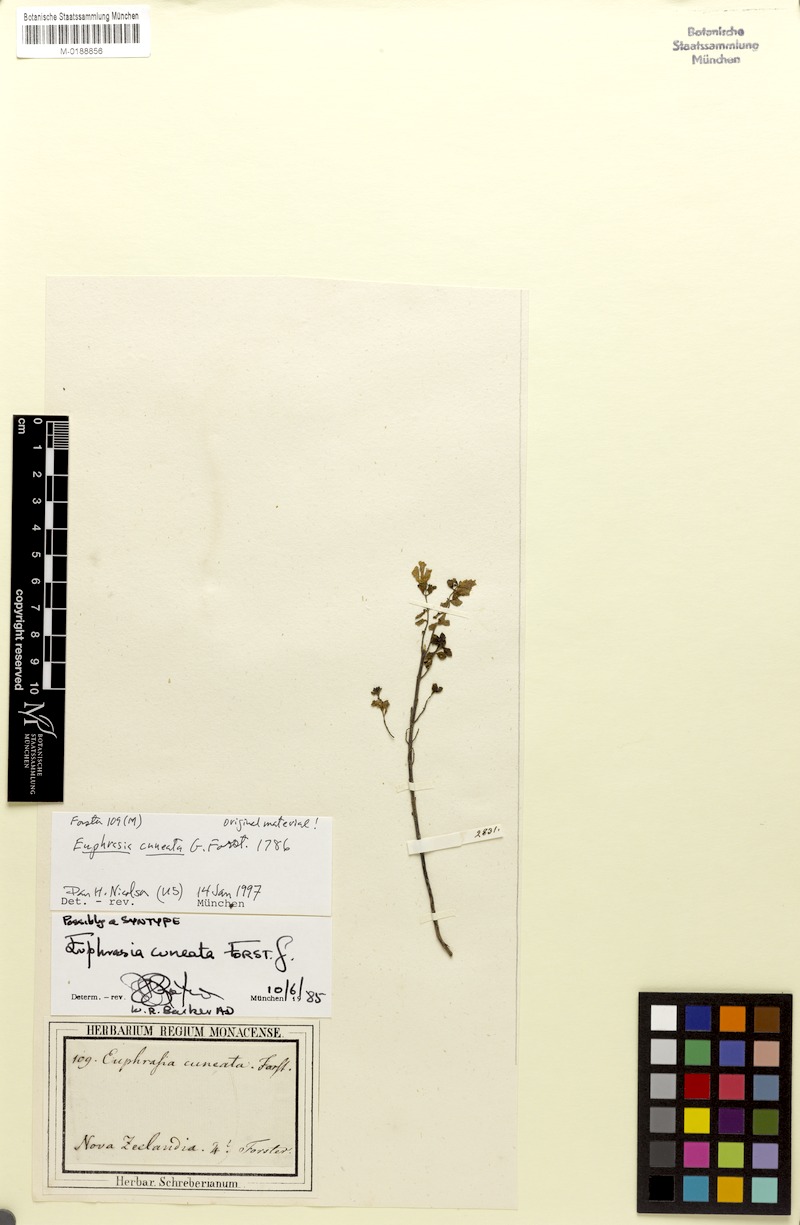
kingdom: Plantae
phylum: Tracheophyta
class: Magnoliopsida
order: Lamiales
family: Orobanchaceae
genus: Euphrasia
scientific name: Euphrasia cuneata
